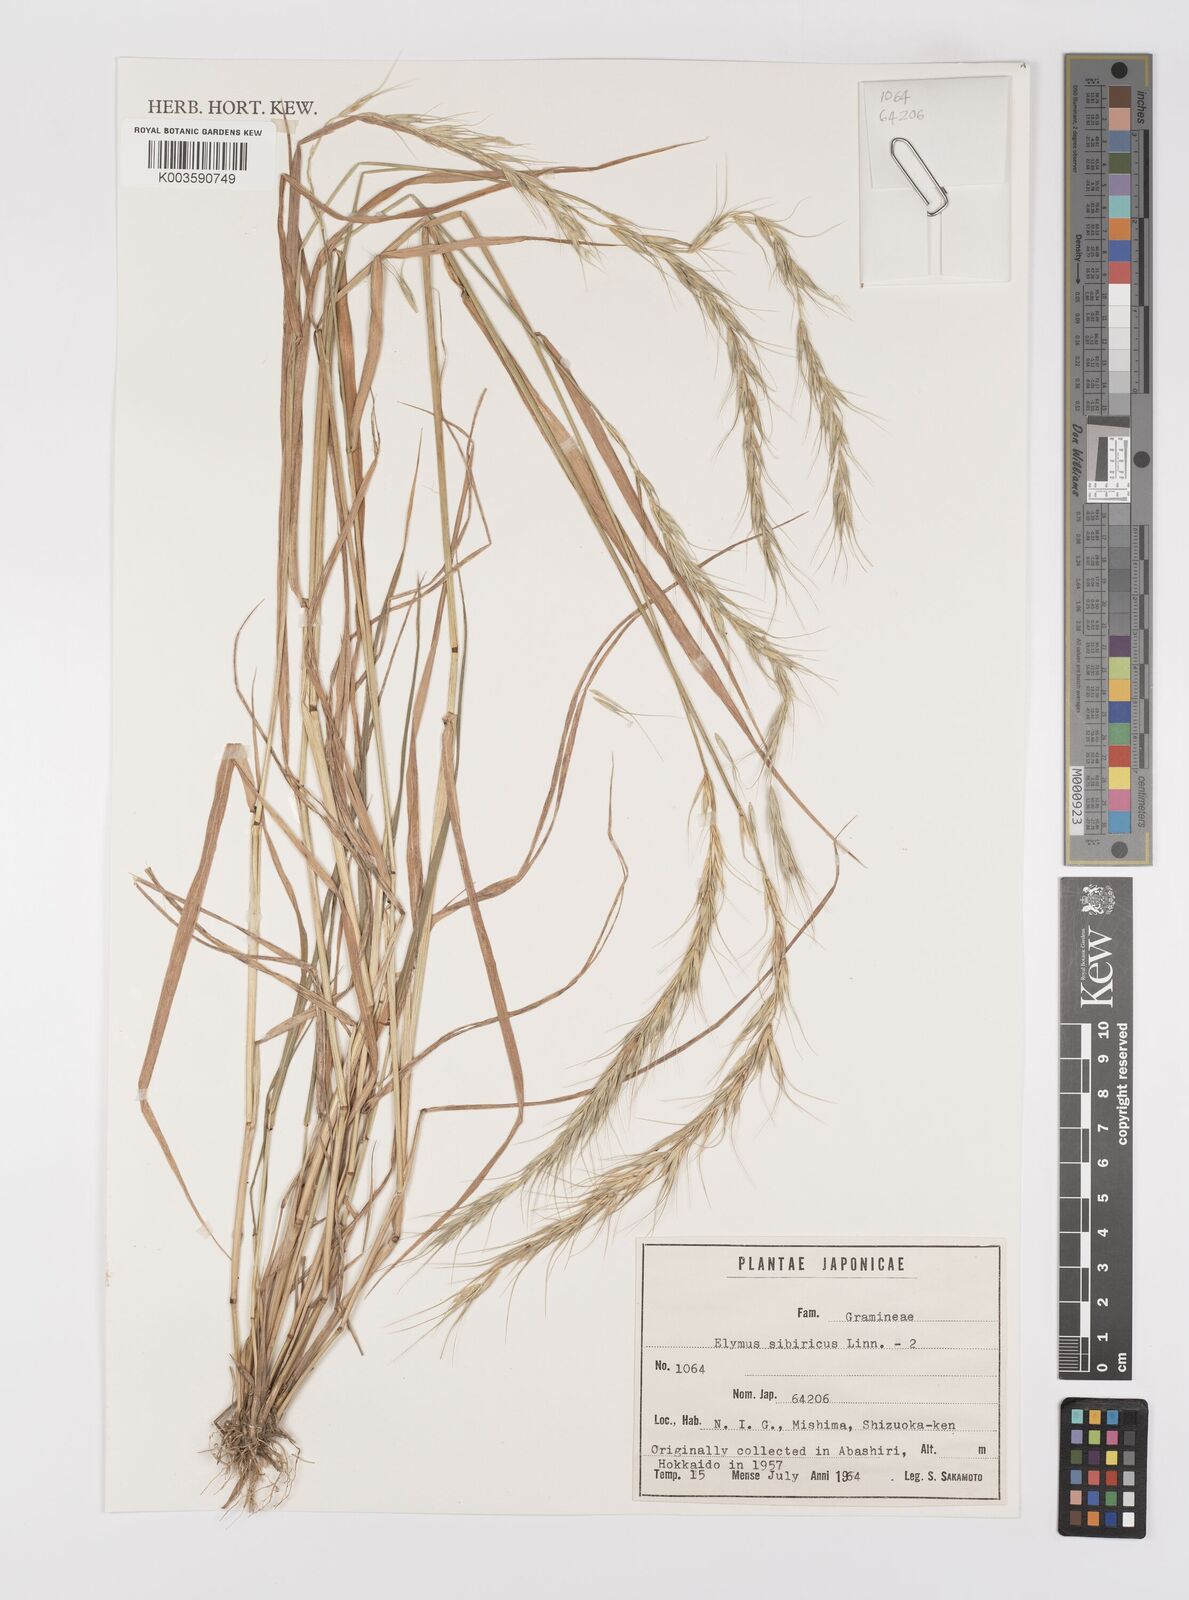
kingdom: Plantae
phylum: Tracheophyta
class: Liliopsida
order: Poales
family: Poaceae
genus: Elymus
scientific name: Elymus sibiricus
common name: Siberian wildrye
